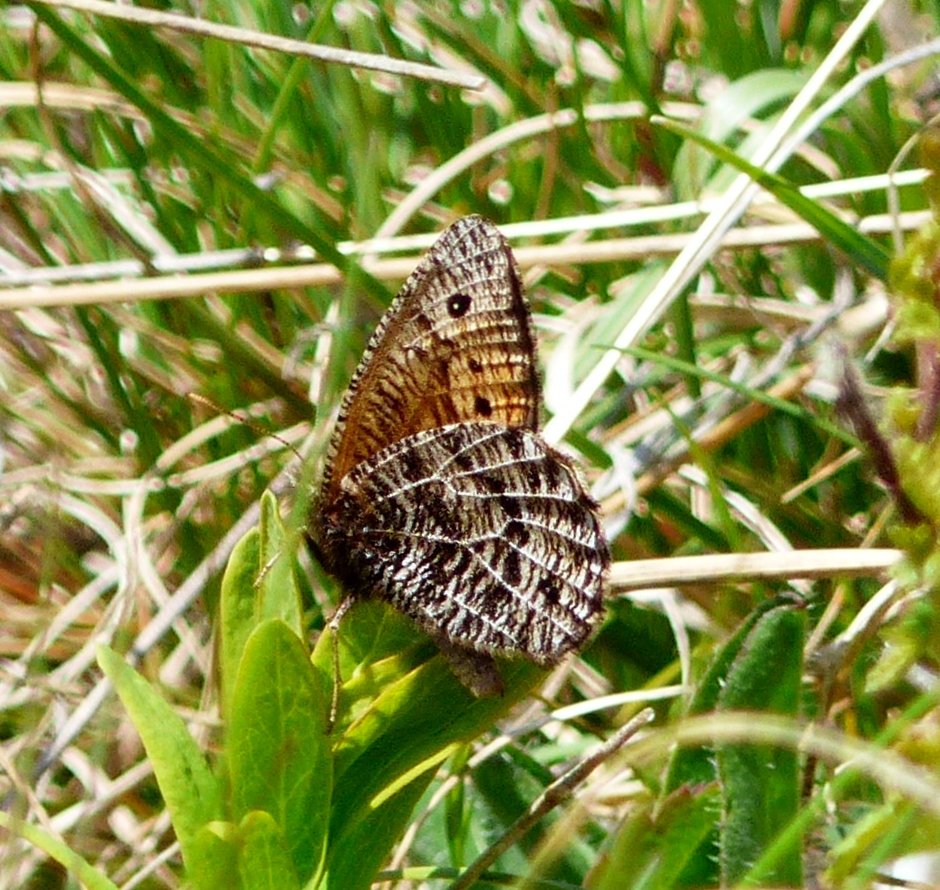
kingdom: Animalia
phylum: Arthropoda
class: Insecta
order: Lepidoptera
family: Nymphalidae
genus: Oeneis
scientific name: Oeneis chryxus
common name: Chryxus Arctic
